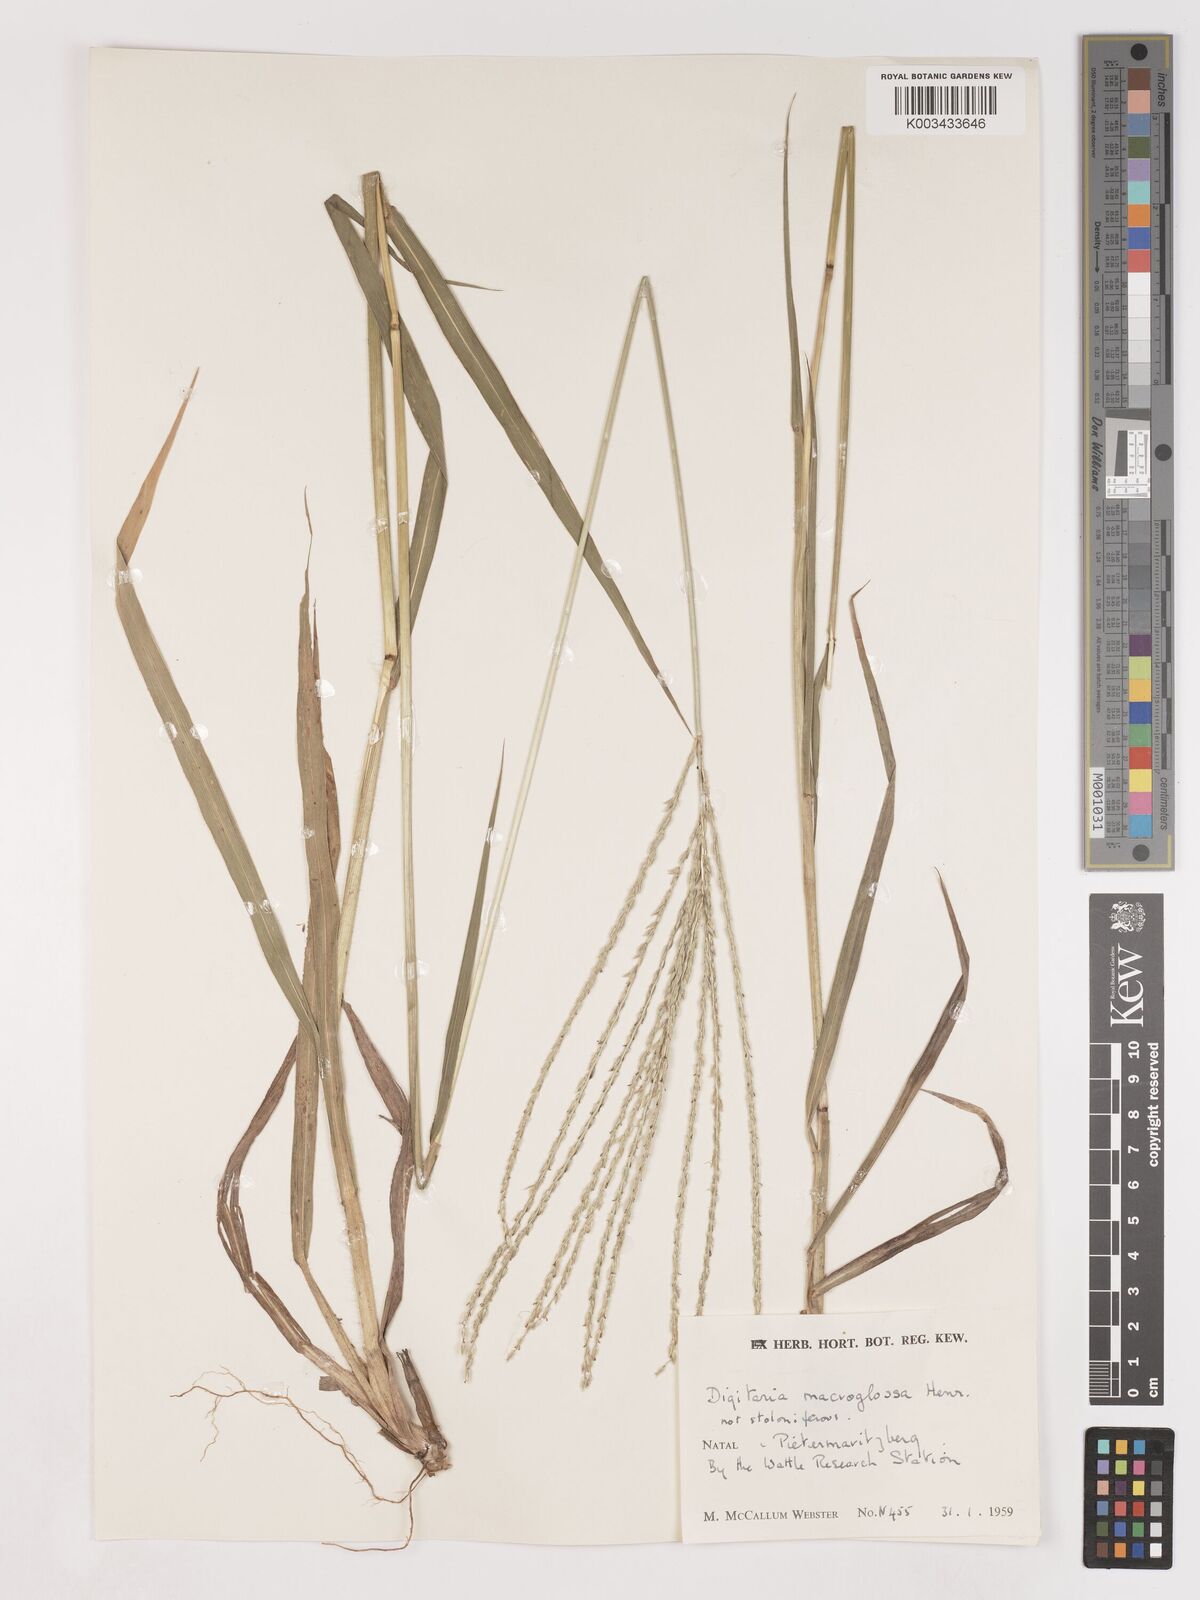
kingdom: Plantae
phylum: Tracheophyta
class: Liliopsida
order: Poales
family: Poaceae
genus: Digitaria
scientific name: Digitaria natalensis
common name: Coast finger grass
